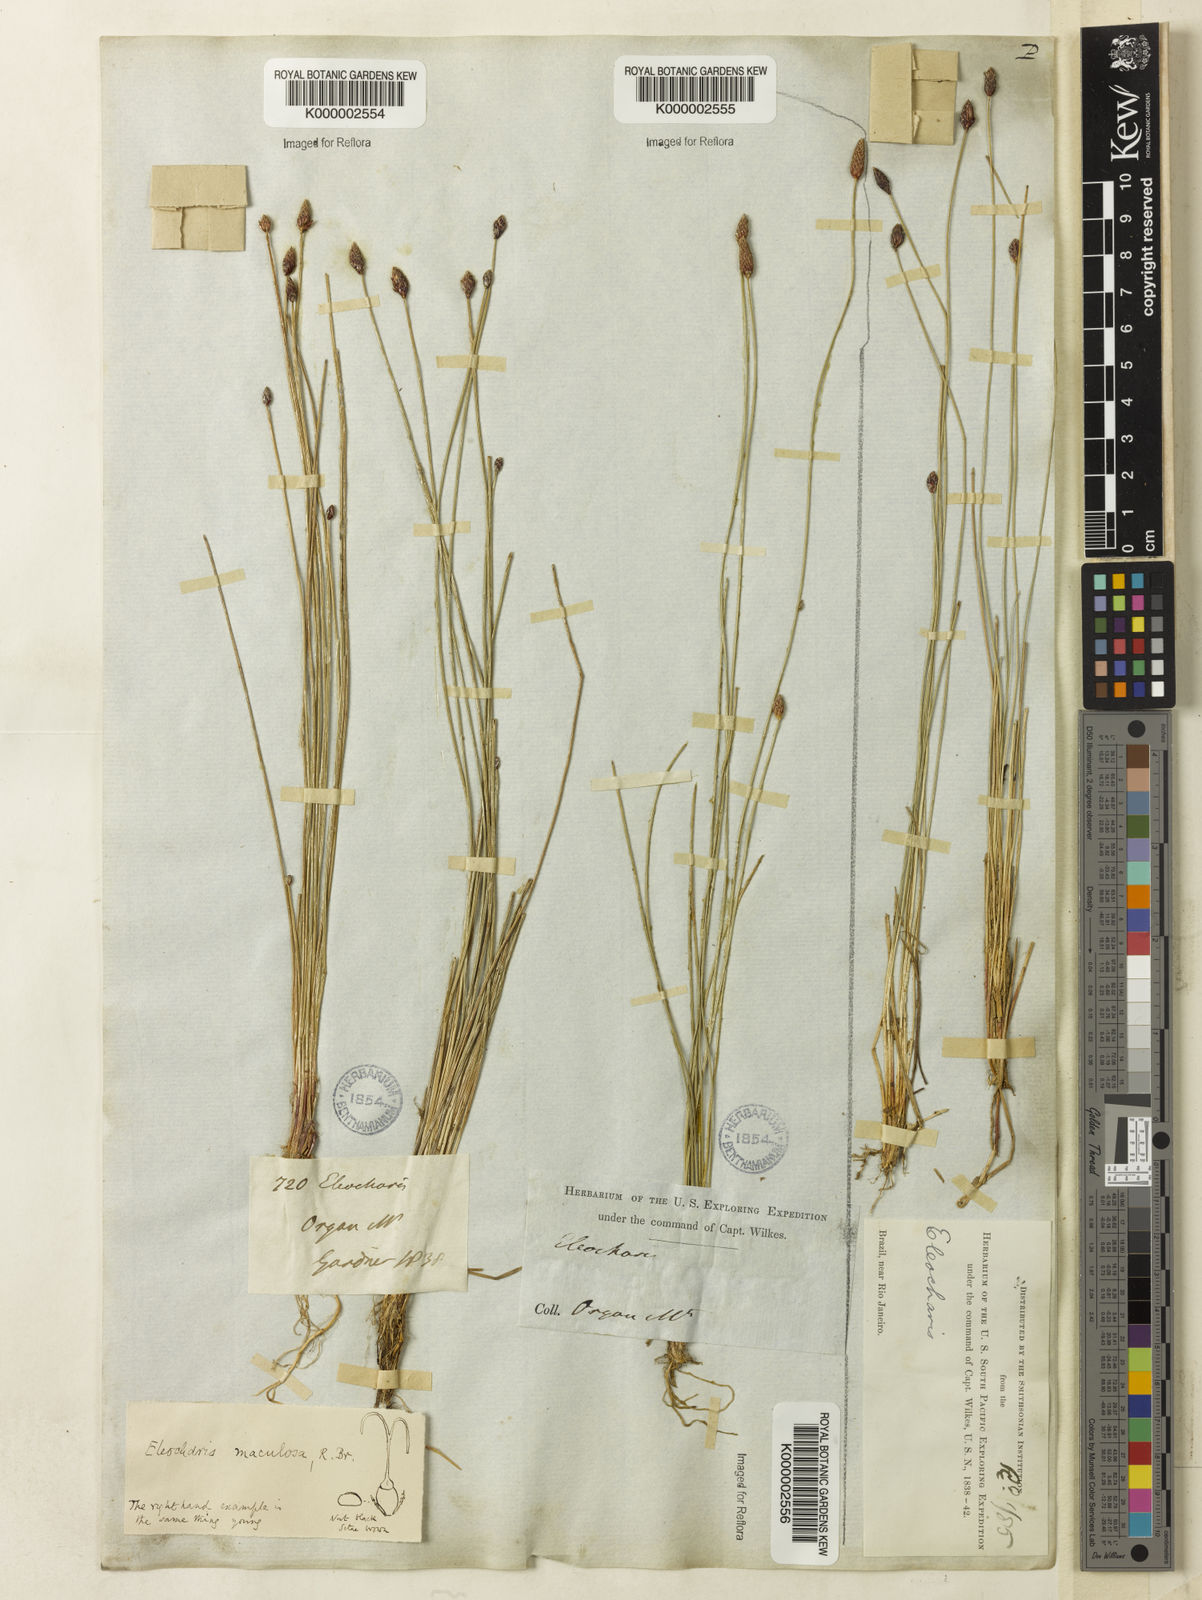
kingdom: Plantae
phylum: Tracheophyta
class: Liliopsida
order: Poales
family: Cyperaceae
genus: Eleocharis
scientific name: Eleocharis maculosa
